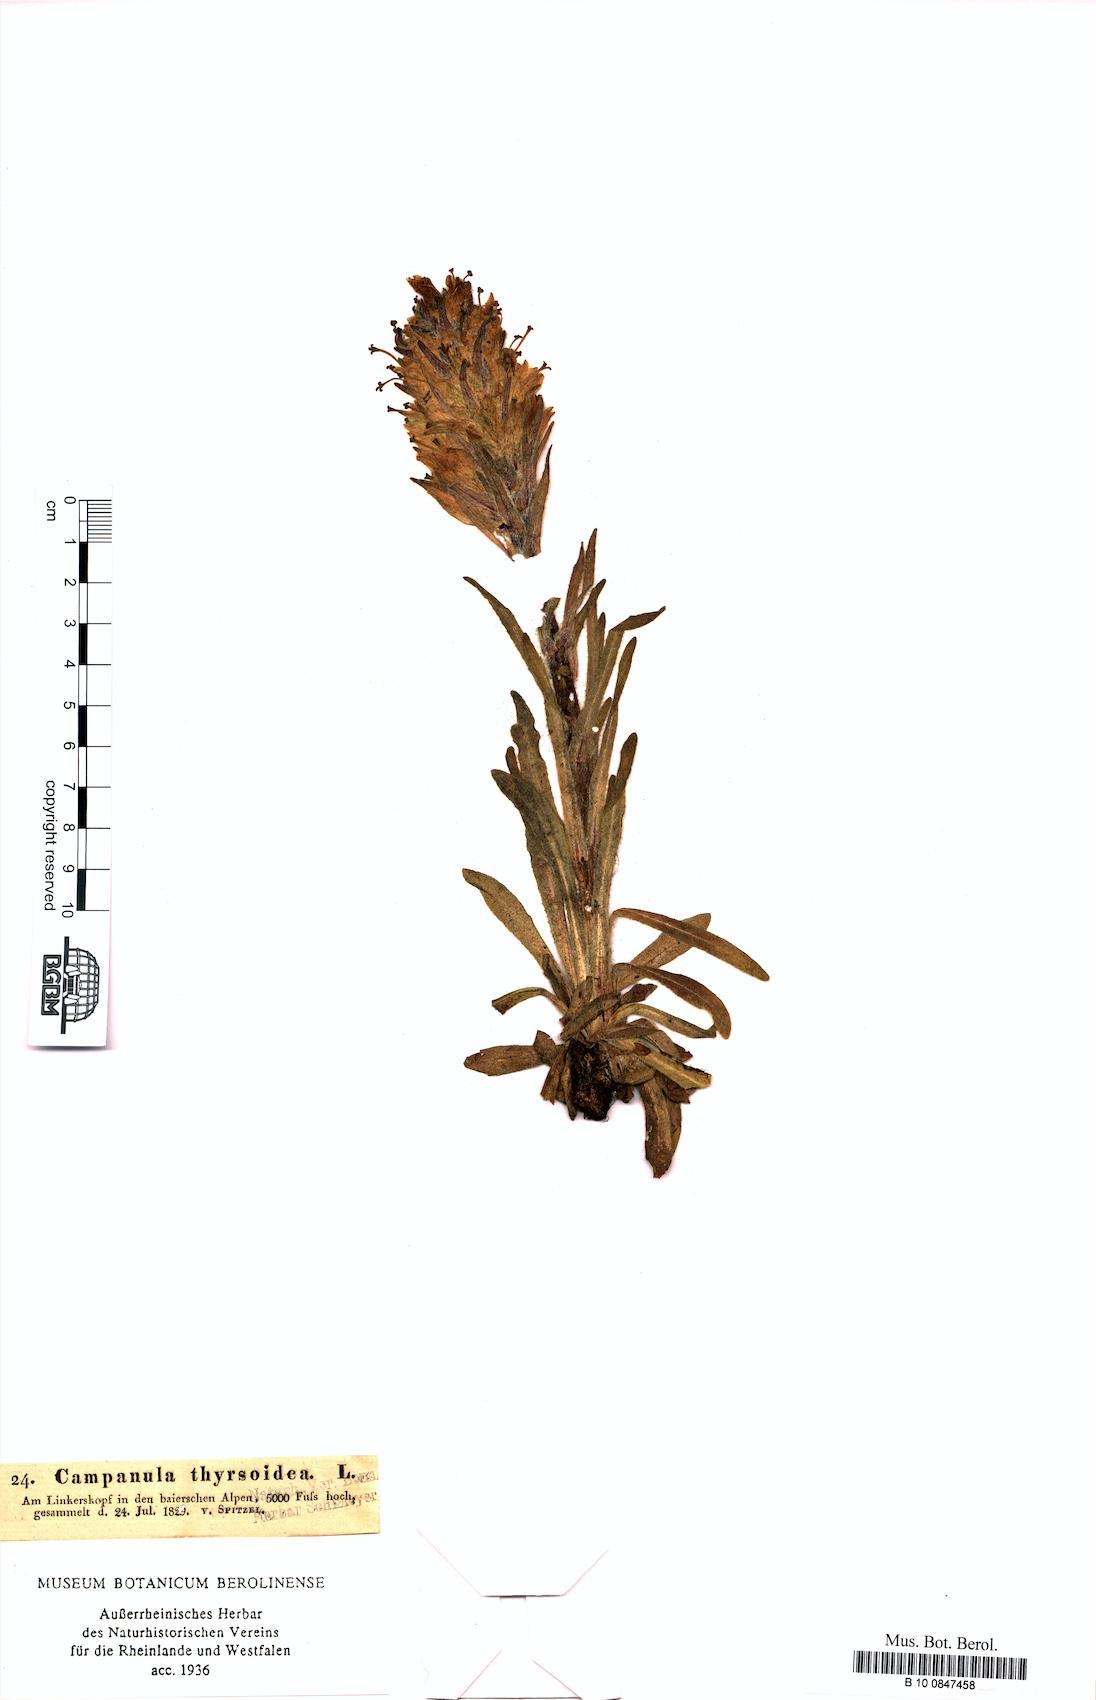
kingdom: Plantae
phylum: Tracheophyta
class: Magnoliopsida
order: Asterales
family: Campanulaceae
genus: Campanula
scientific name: Campanula thyrsoides
